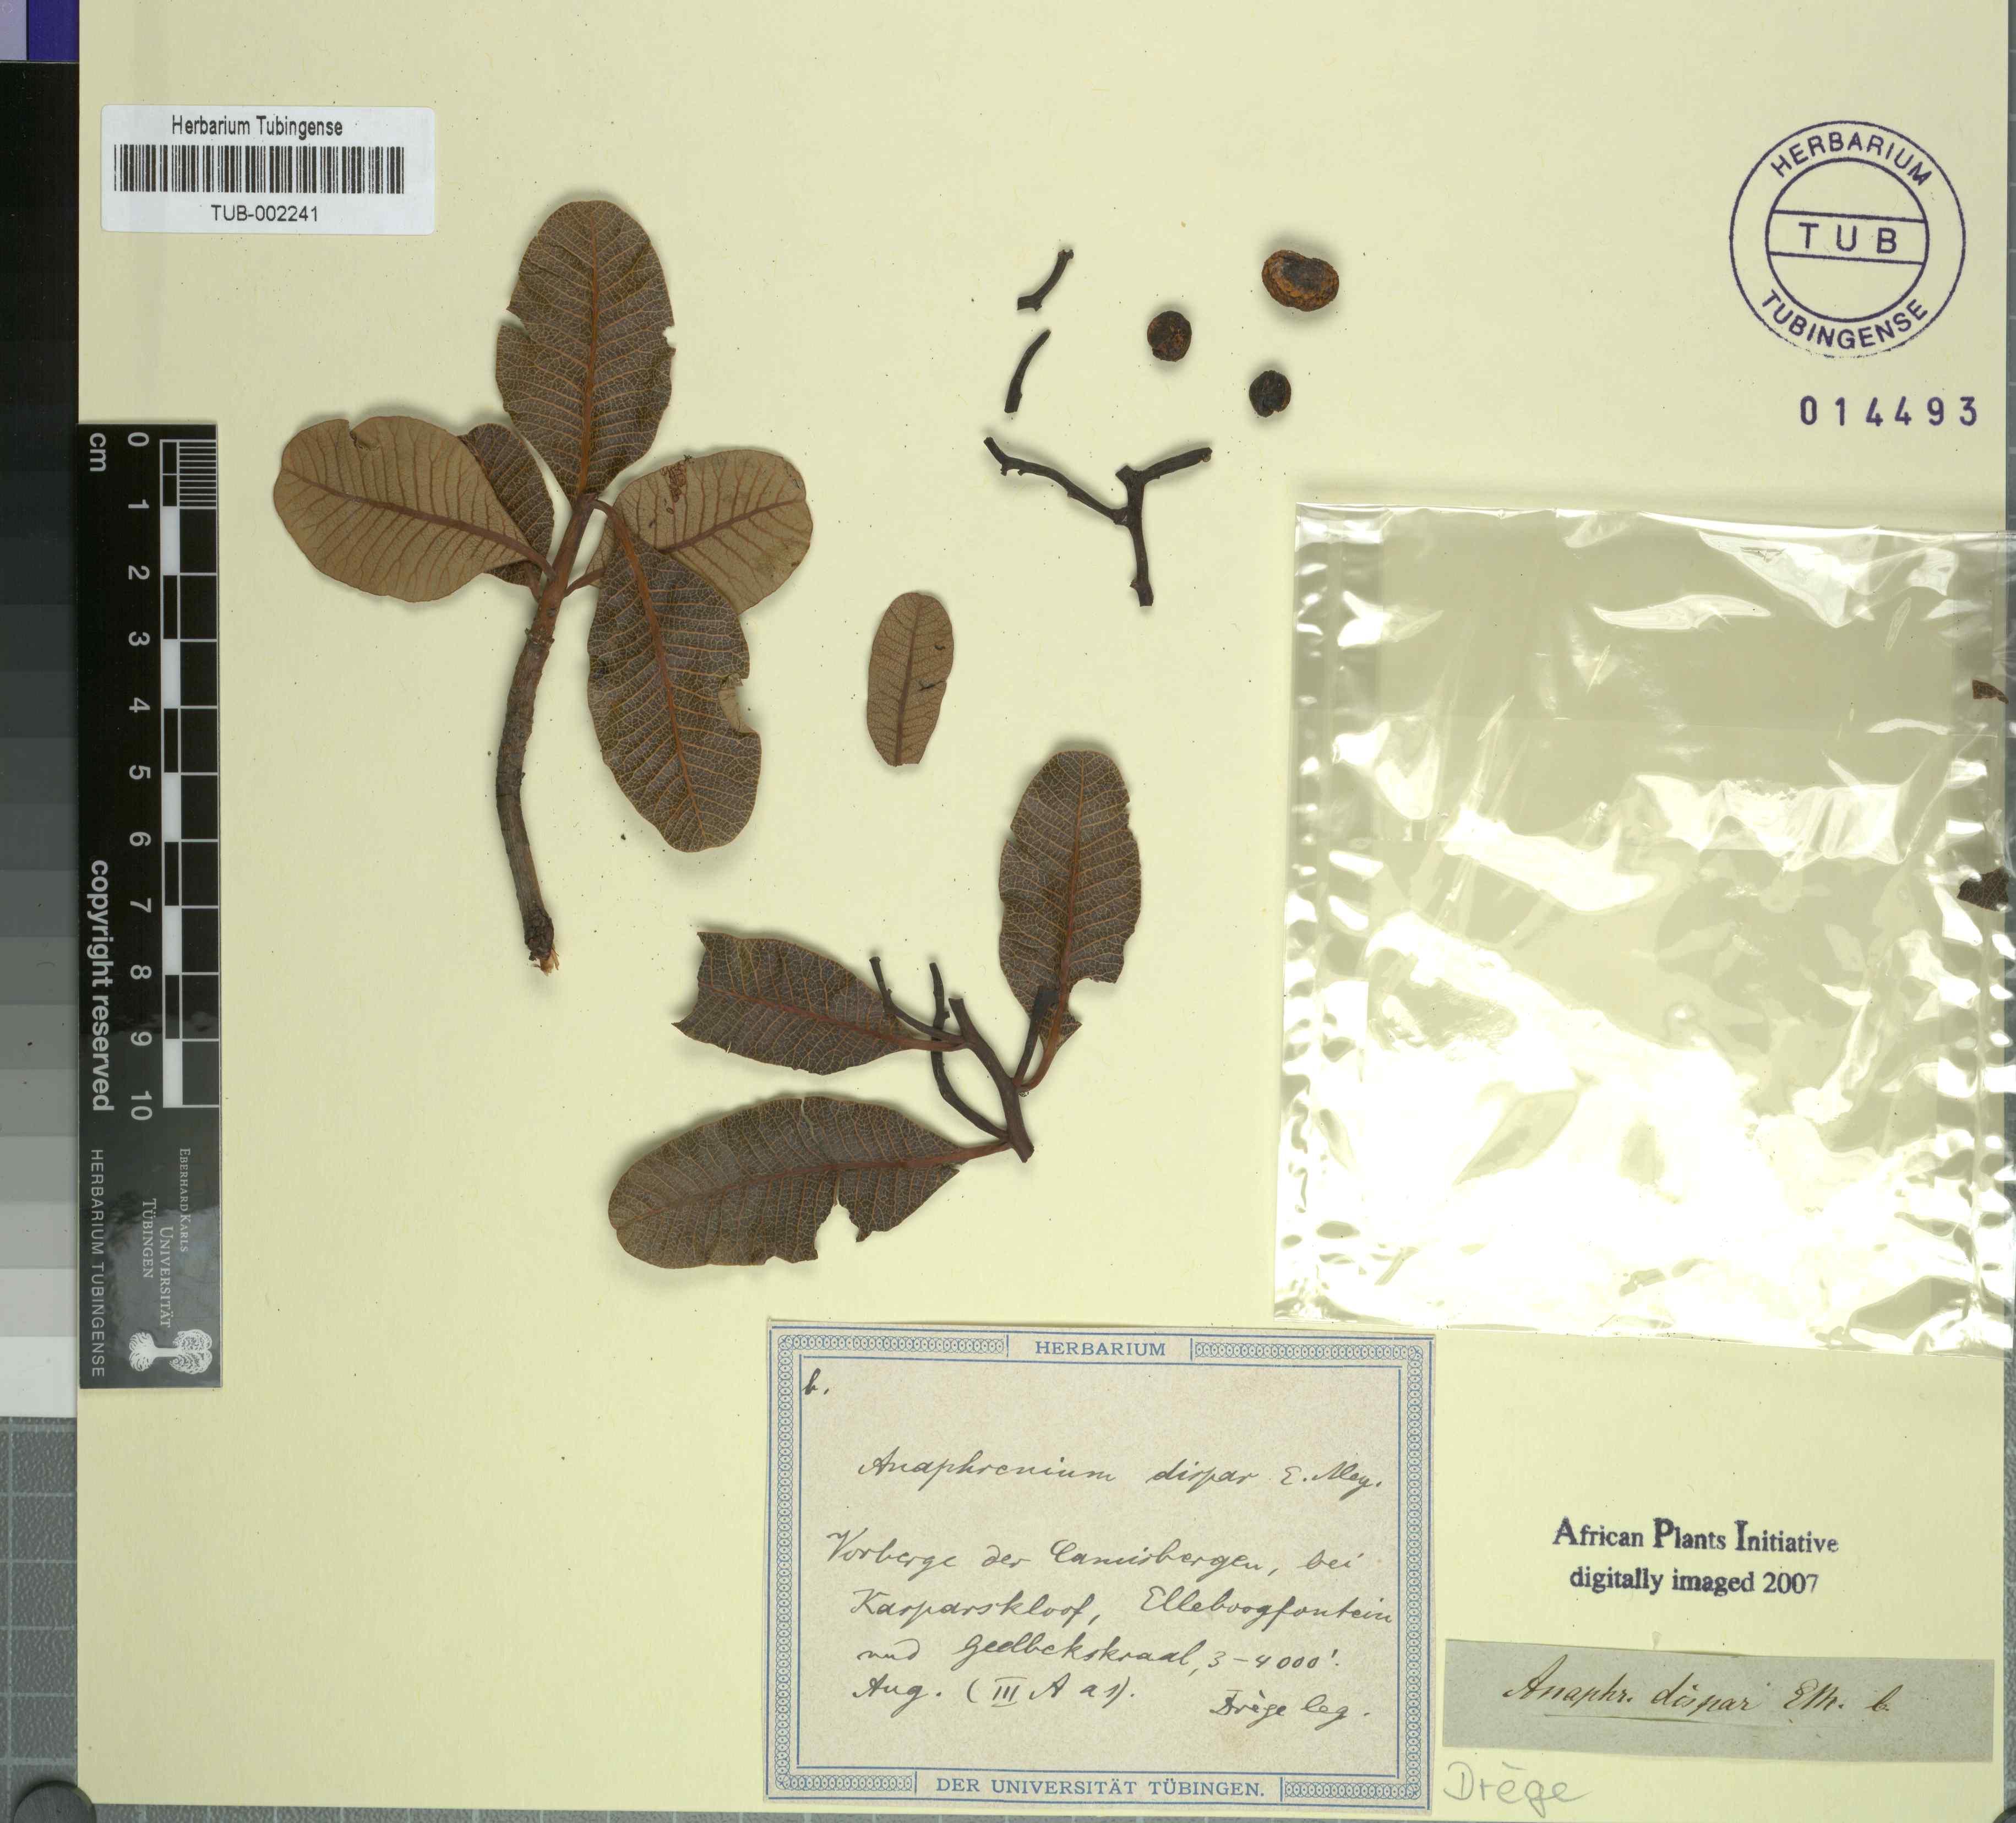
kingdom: Plantae
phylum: Tracheophyta
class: Magnoliopsida
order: Sapindales
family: Anacardiaceae
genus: Ozoroa
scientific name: Ozoroa dispar
